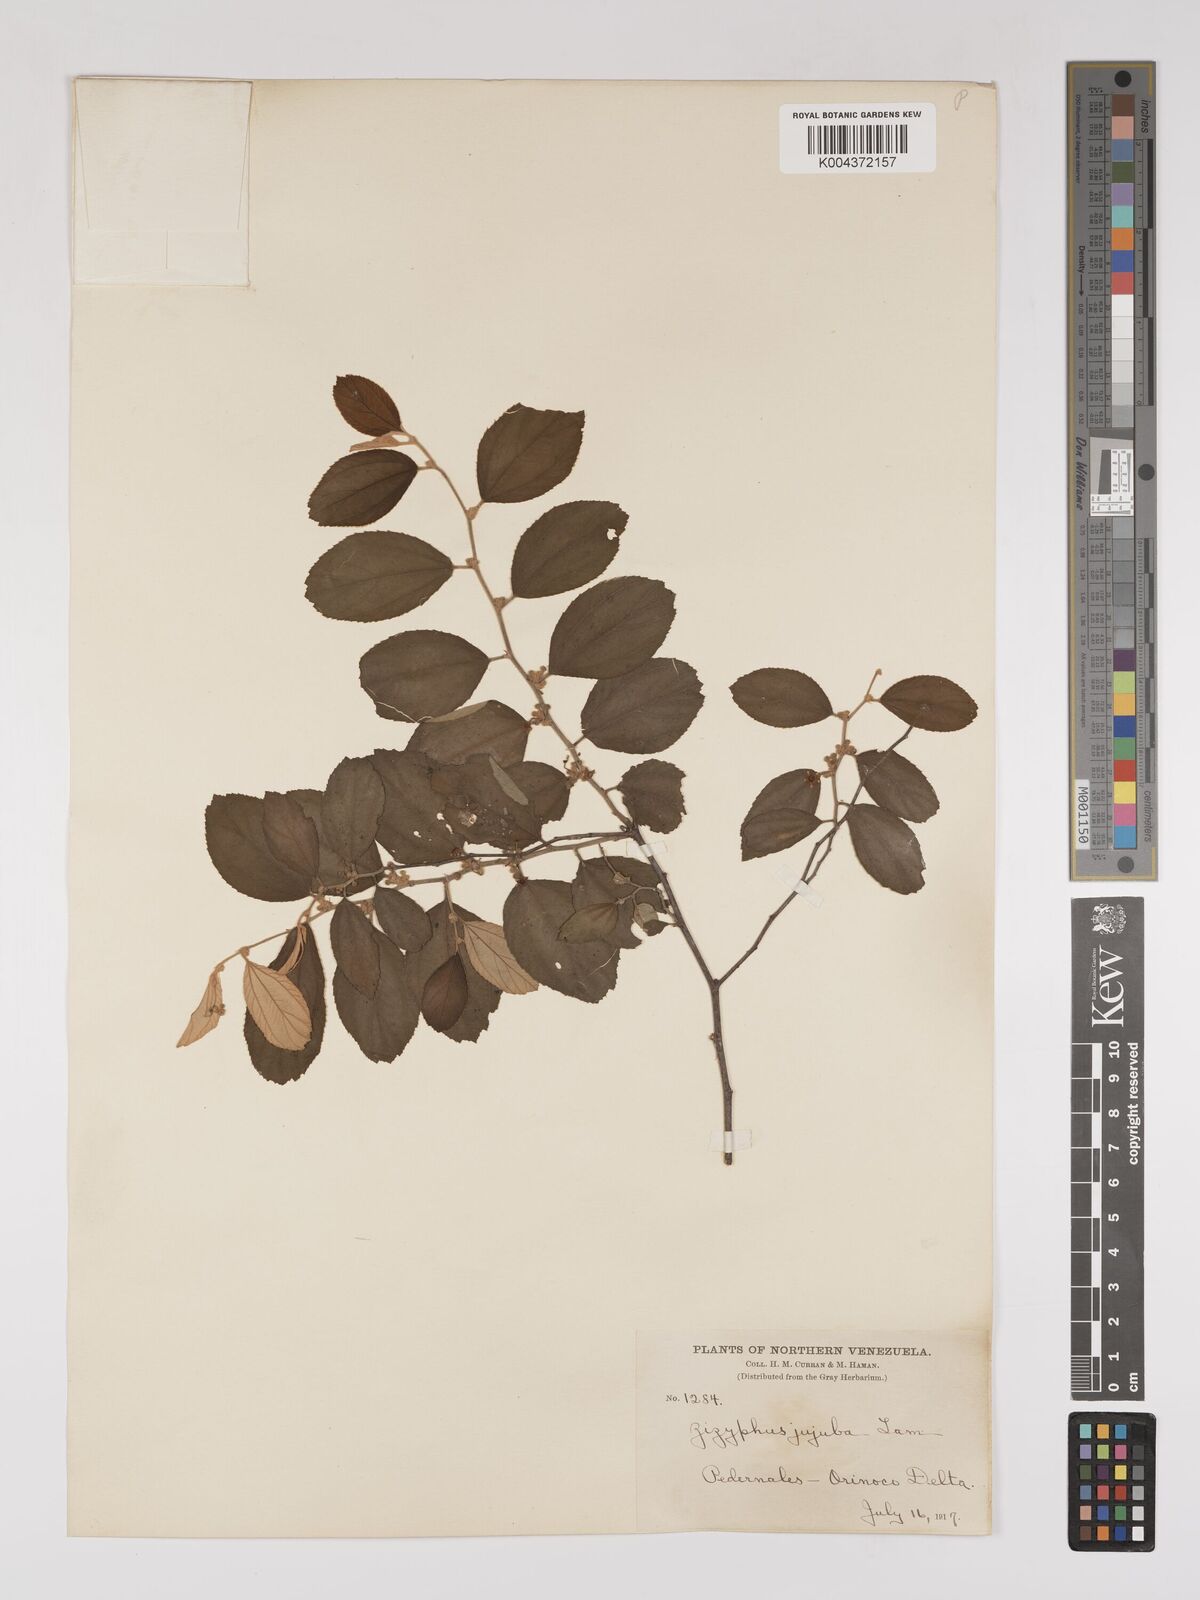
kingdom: Plantae
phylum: Tracheophyta
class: Magnoliopsida
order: Rosales
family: Rhamnaceae
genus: Ziziphus
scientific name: Ziziphus mauritiana
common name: Indian jujube
